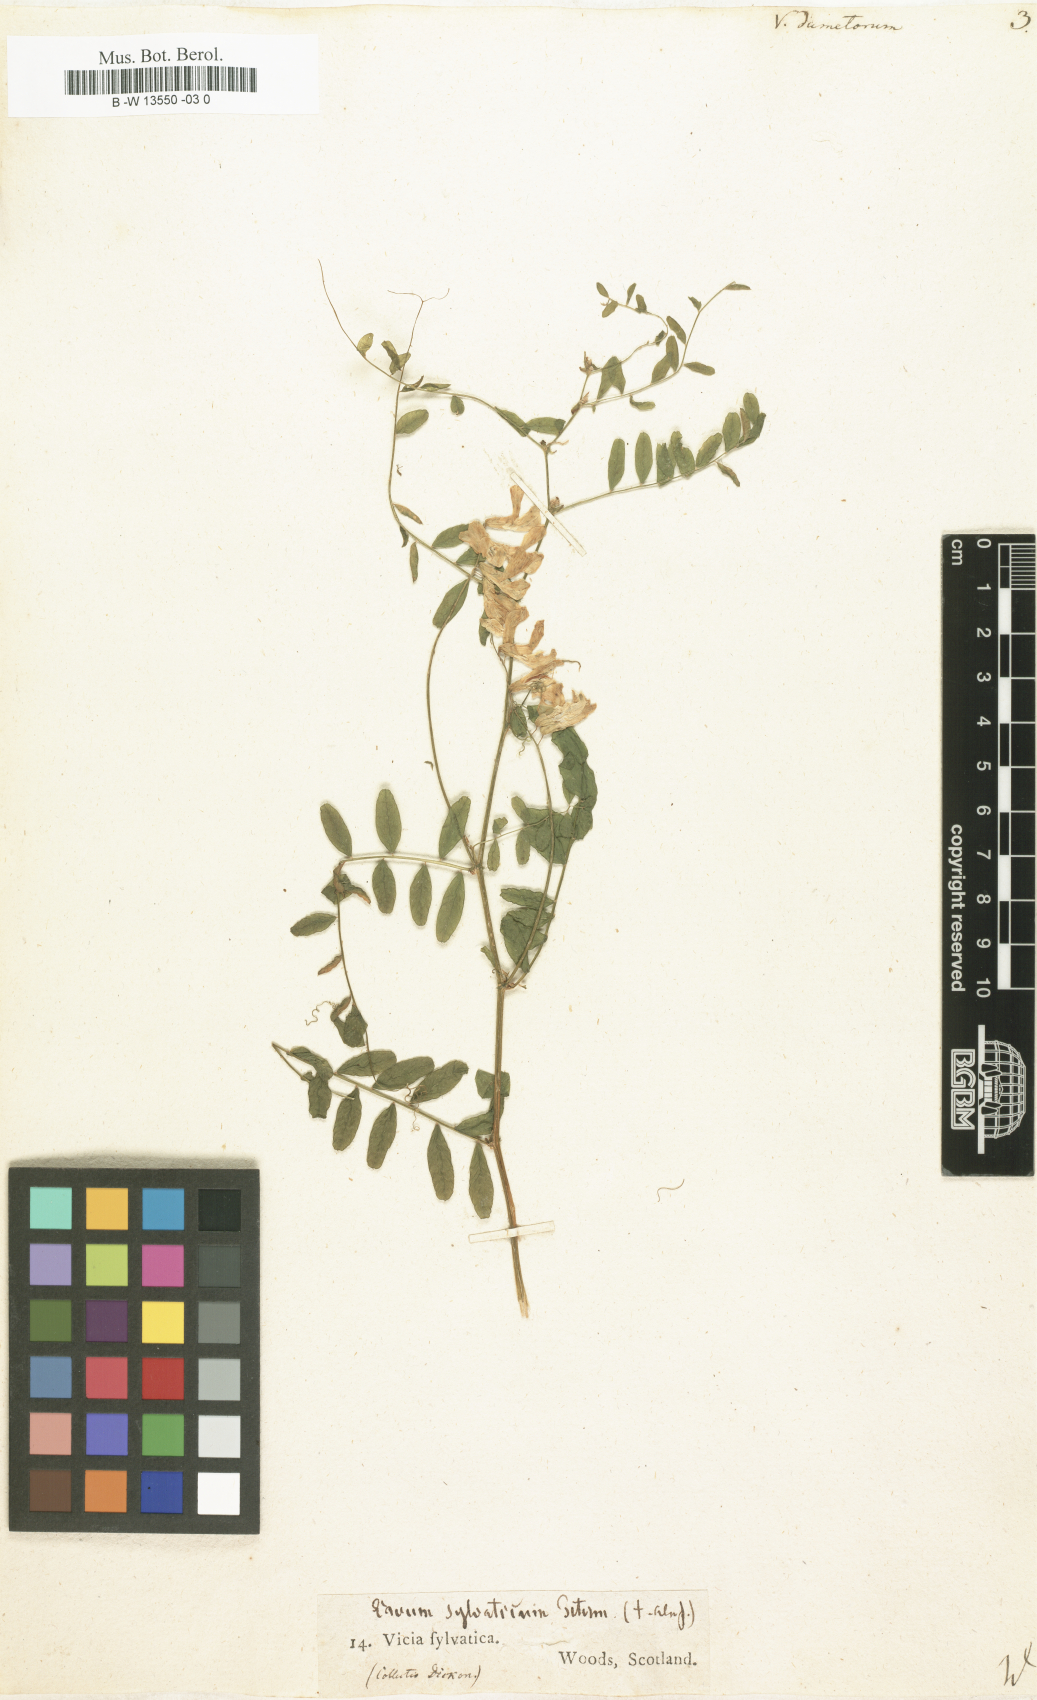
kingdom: Plantae
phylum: Tracheophyta
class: Magnoliopsida
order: Fabales
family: Fabaceae
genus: Vicia
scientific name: Vicia dumetorum
